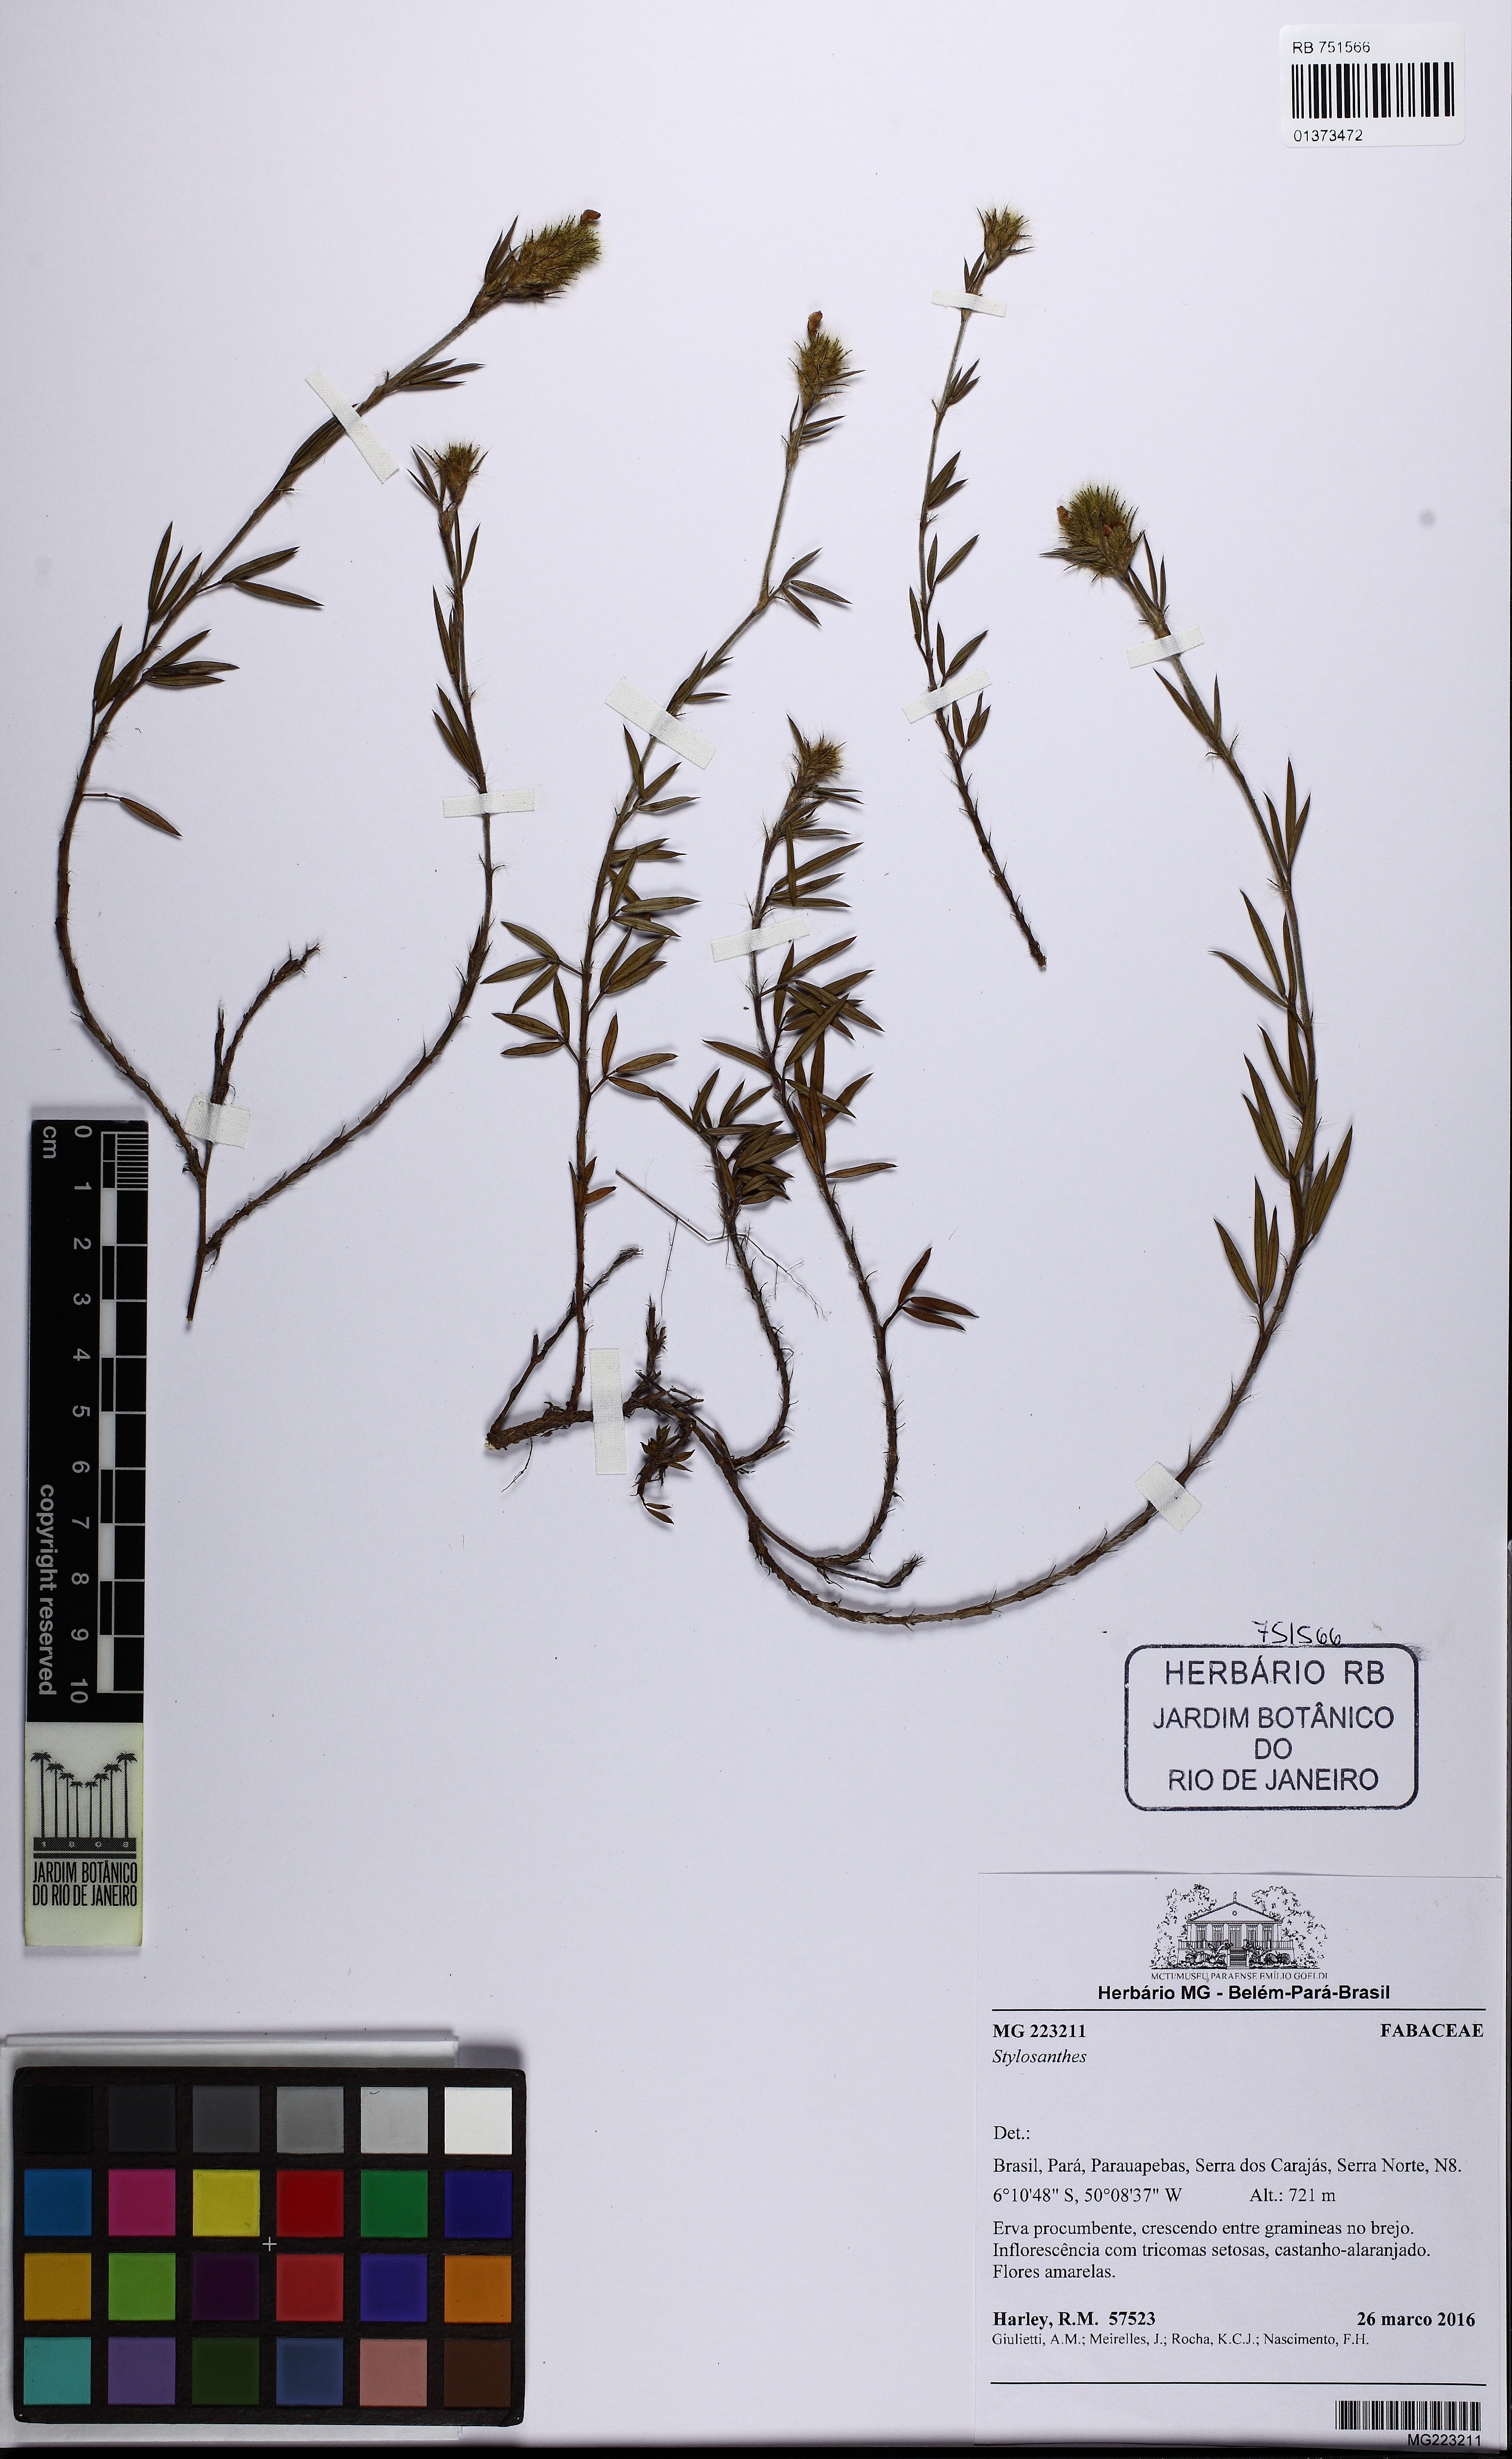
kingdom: Plantae
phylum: Tracheophyta
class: Magnoliopsida
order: Fabales
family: Fabaceae
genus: Stylosanthes
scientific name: Stylosanthes hispida
